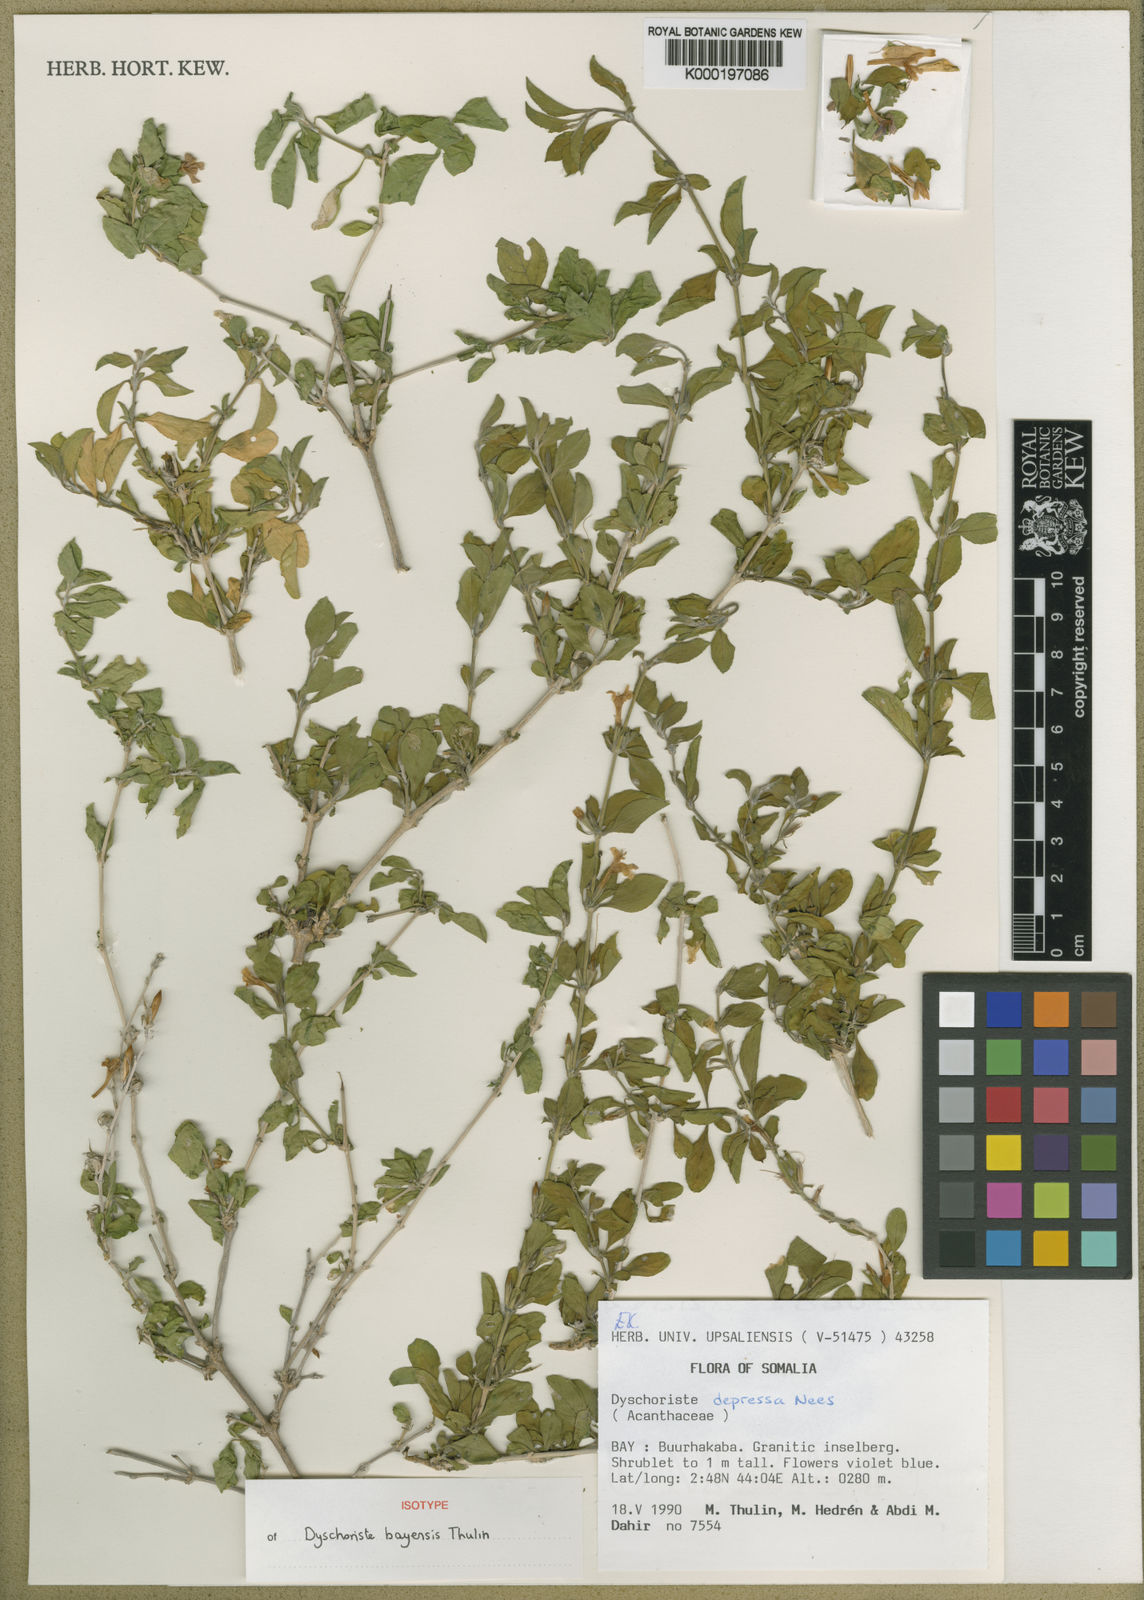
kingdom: Plantae
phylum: Tracheophyta
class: Magnoliopsida
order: Lamiales
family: Acanthaceae
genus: Dyschoriste
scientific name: Dyschoriste bayensis
